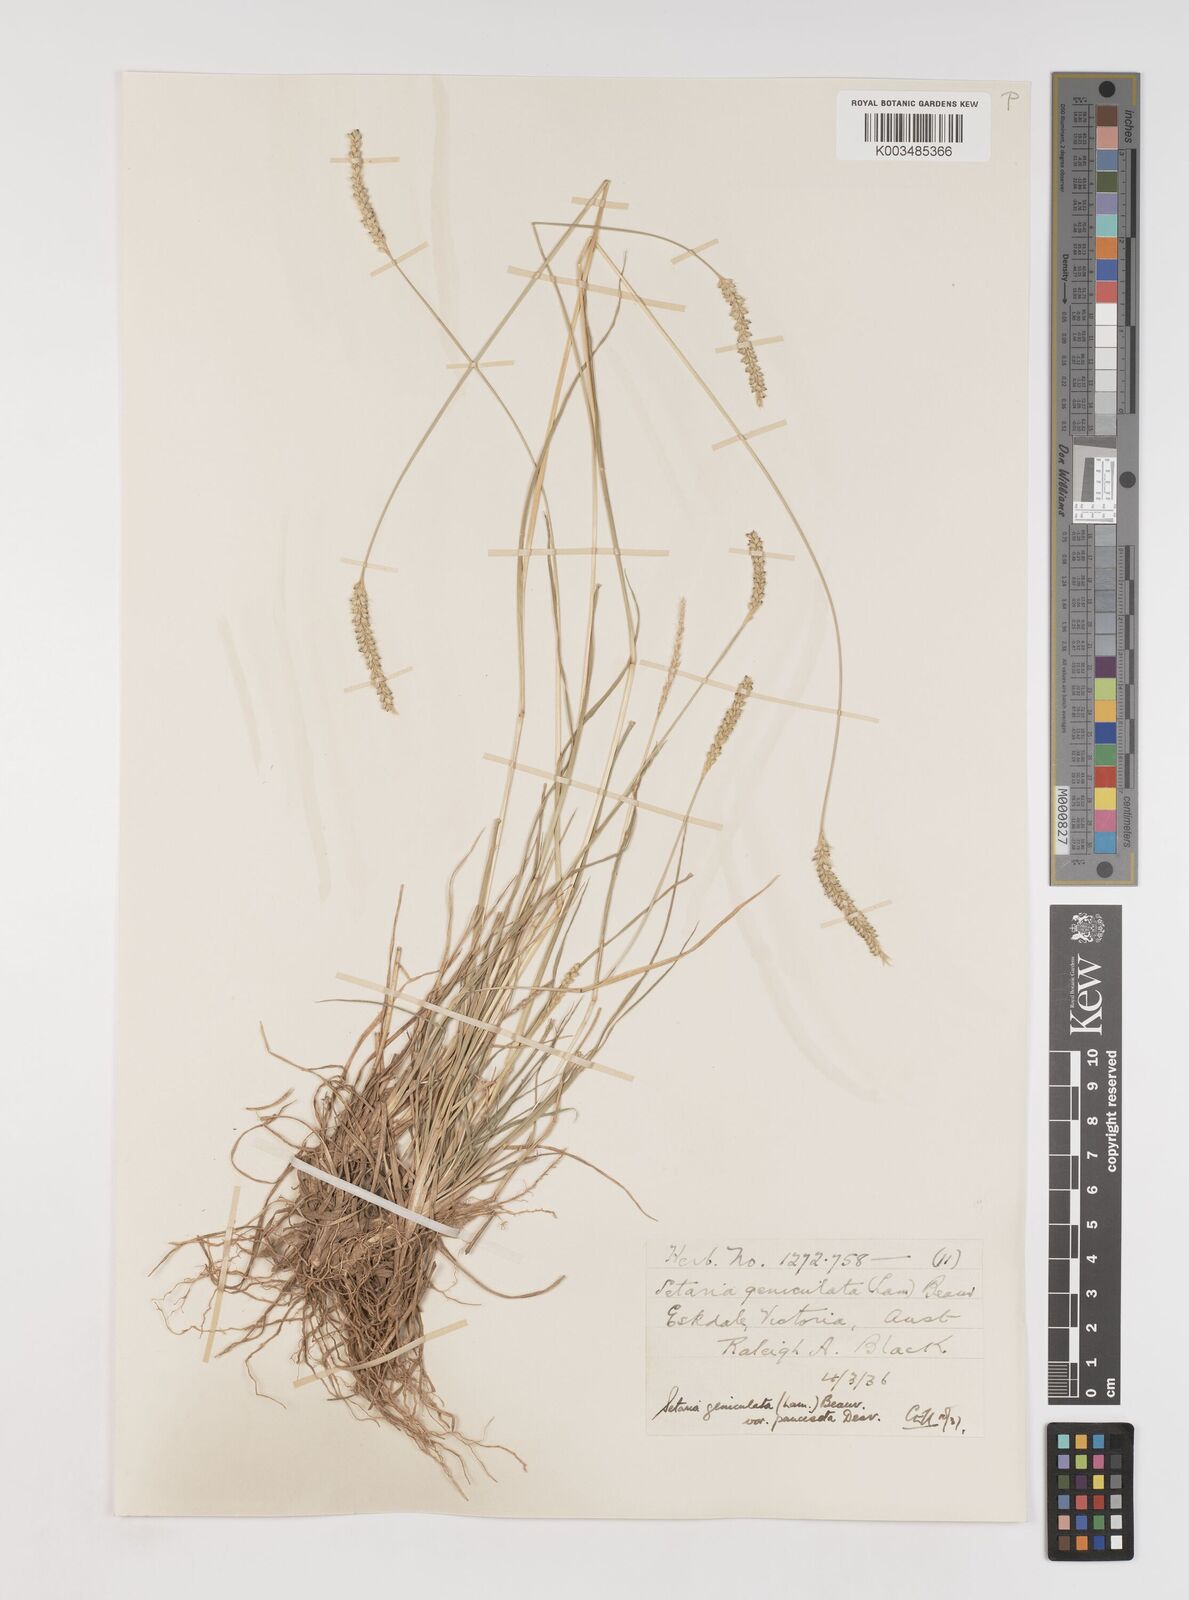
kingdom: Plantae
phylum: Tracheophyta
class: Liliopsida
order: Poales
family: Poaceae
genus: Setaria
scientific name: Setaria parviflora
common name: Knotroot bristle-grass
